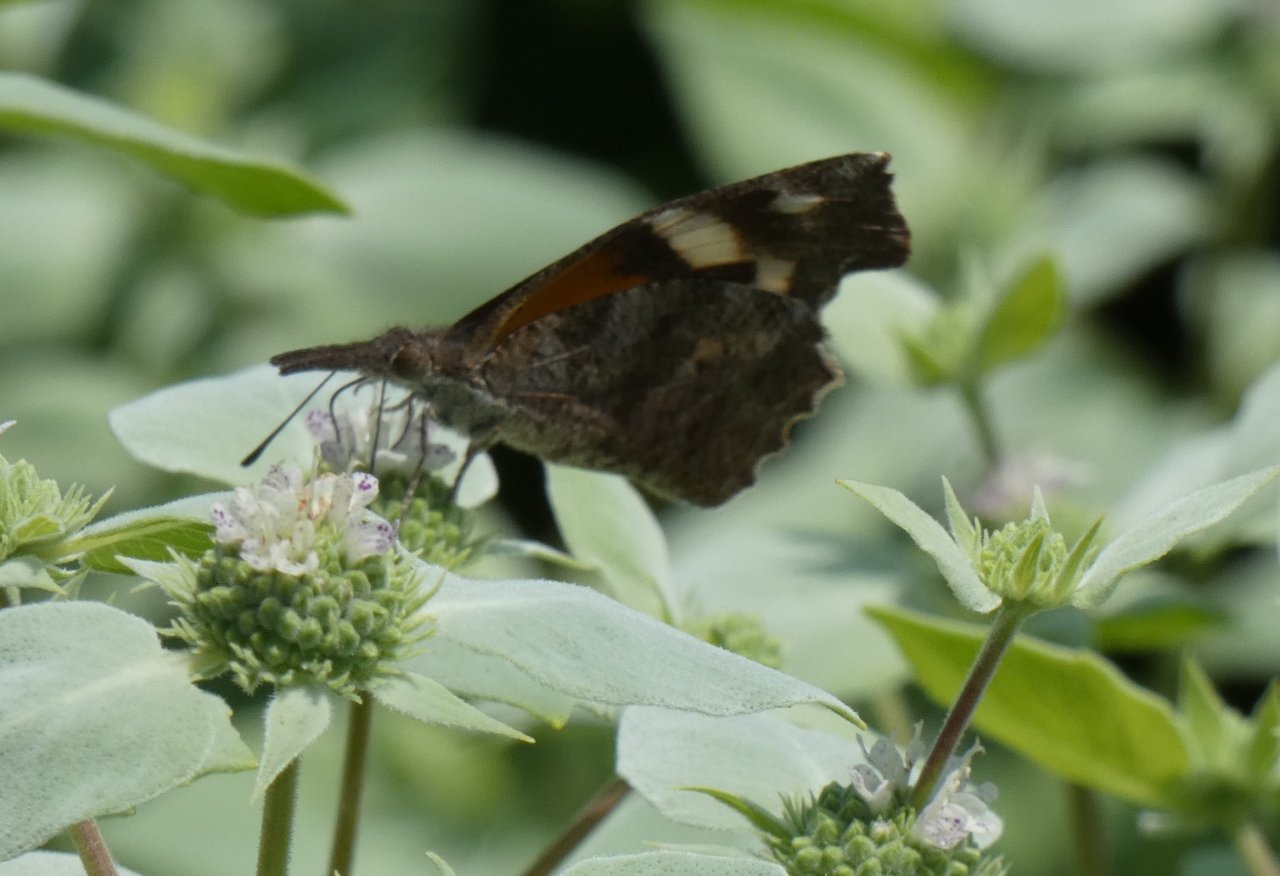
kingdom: Animalia
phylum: Arthropoda
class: Insecta
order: Lepidoptera
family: Nymphalidae
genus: Libytheana
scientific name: Libytheana carinenta
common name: American Snout
